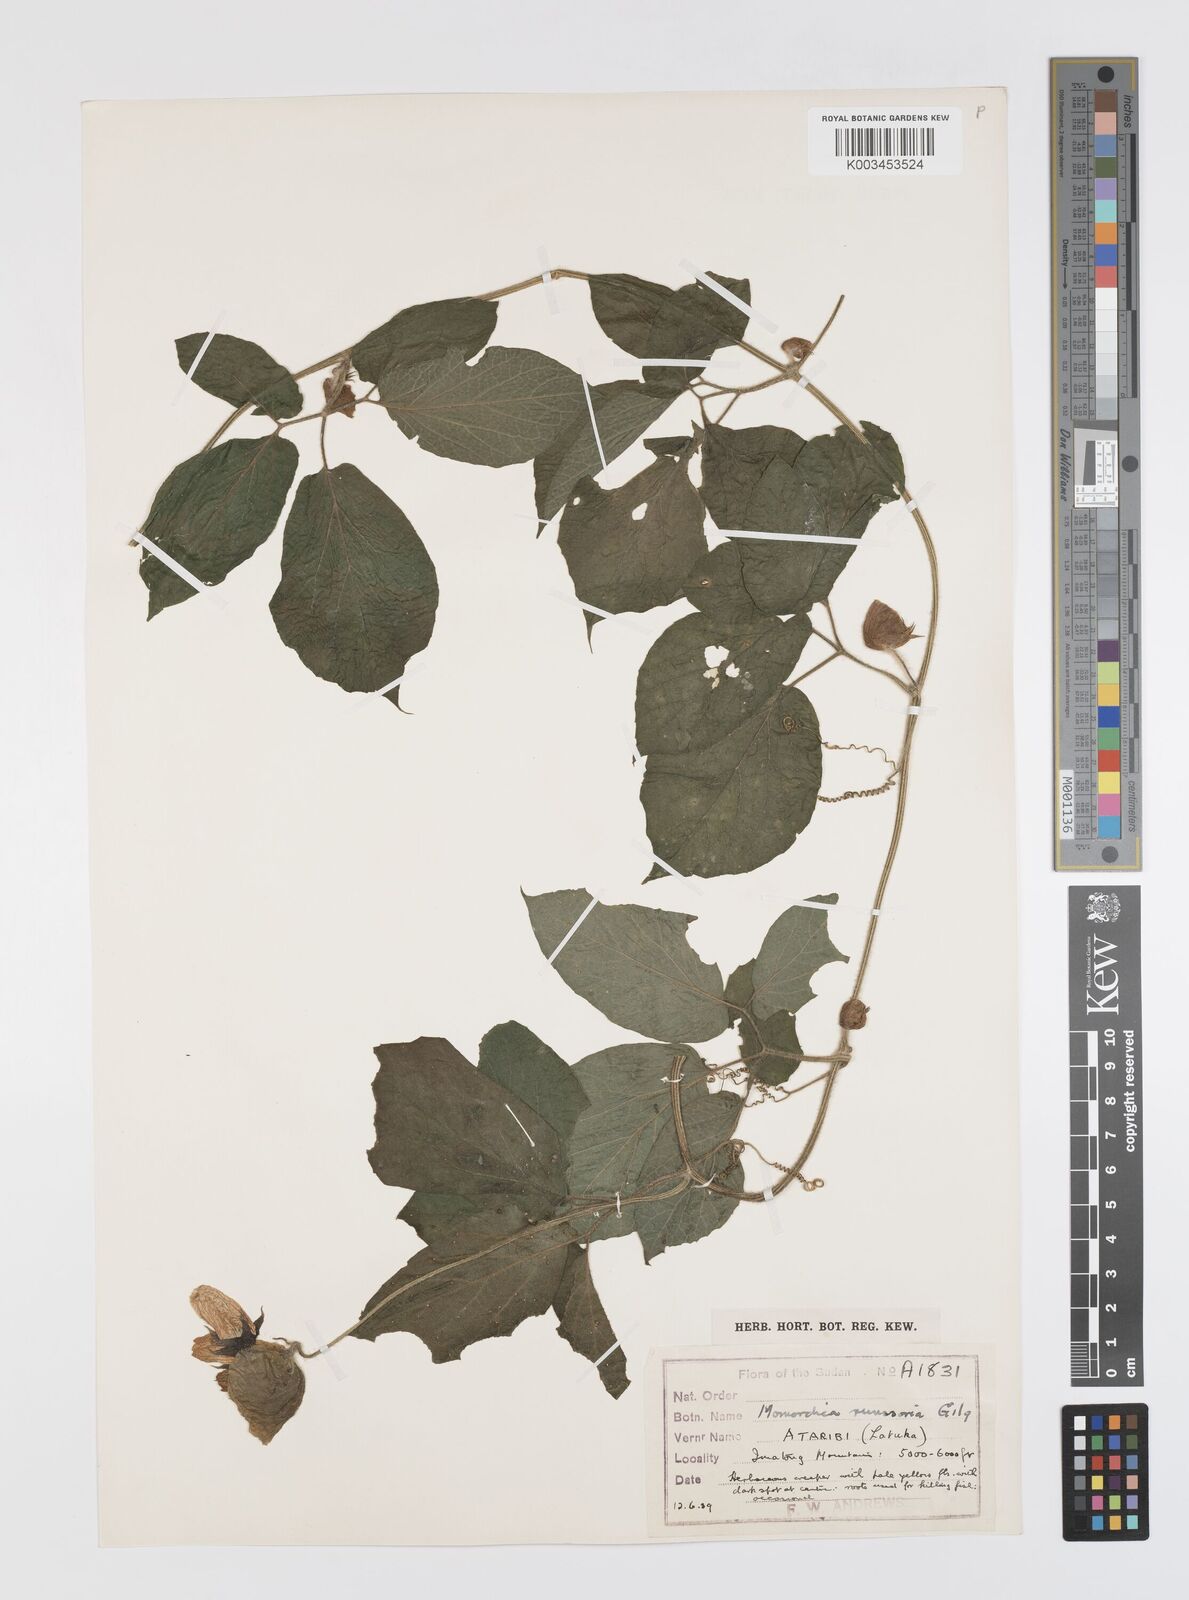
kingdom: Plantae
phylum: Tracheophyta
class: Magnoliopsida
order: Cucurbitales
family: Cucurbitaceae
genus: Momordica
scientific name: Momordica pterocarpa
